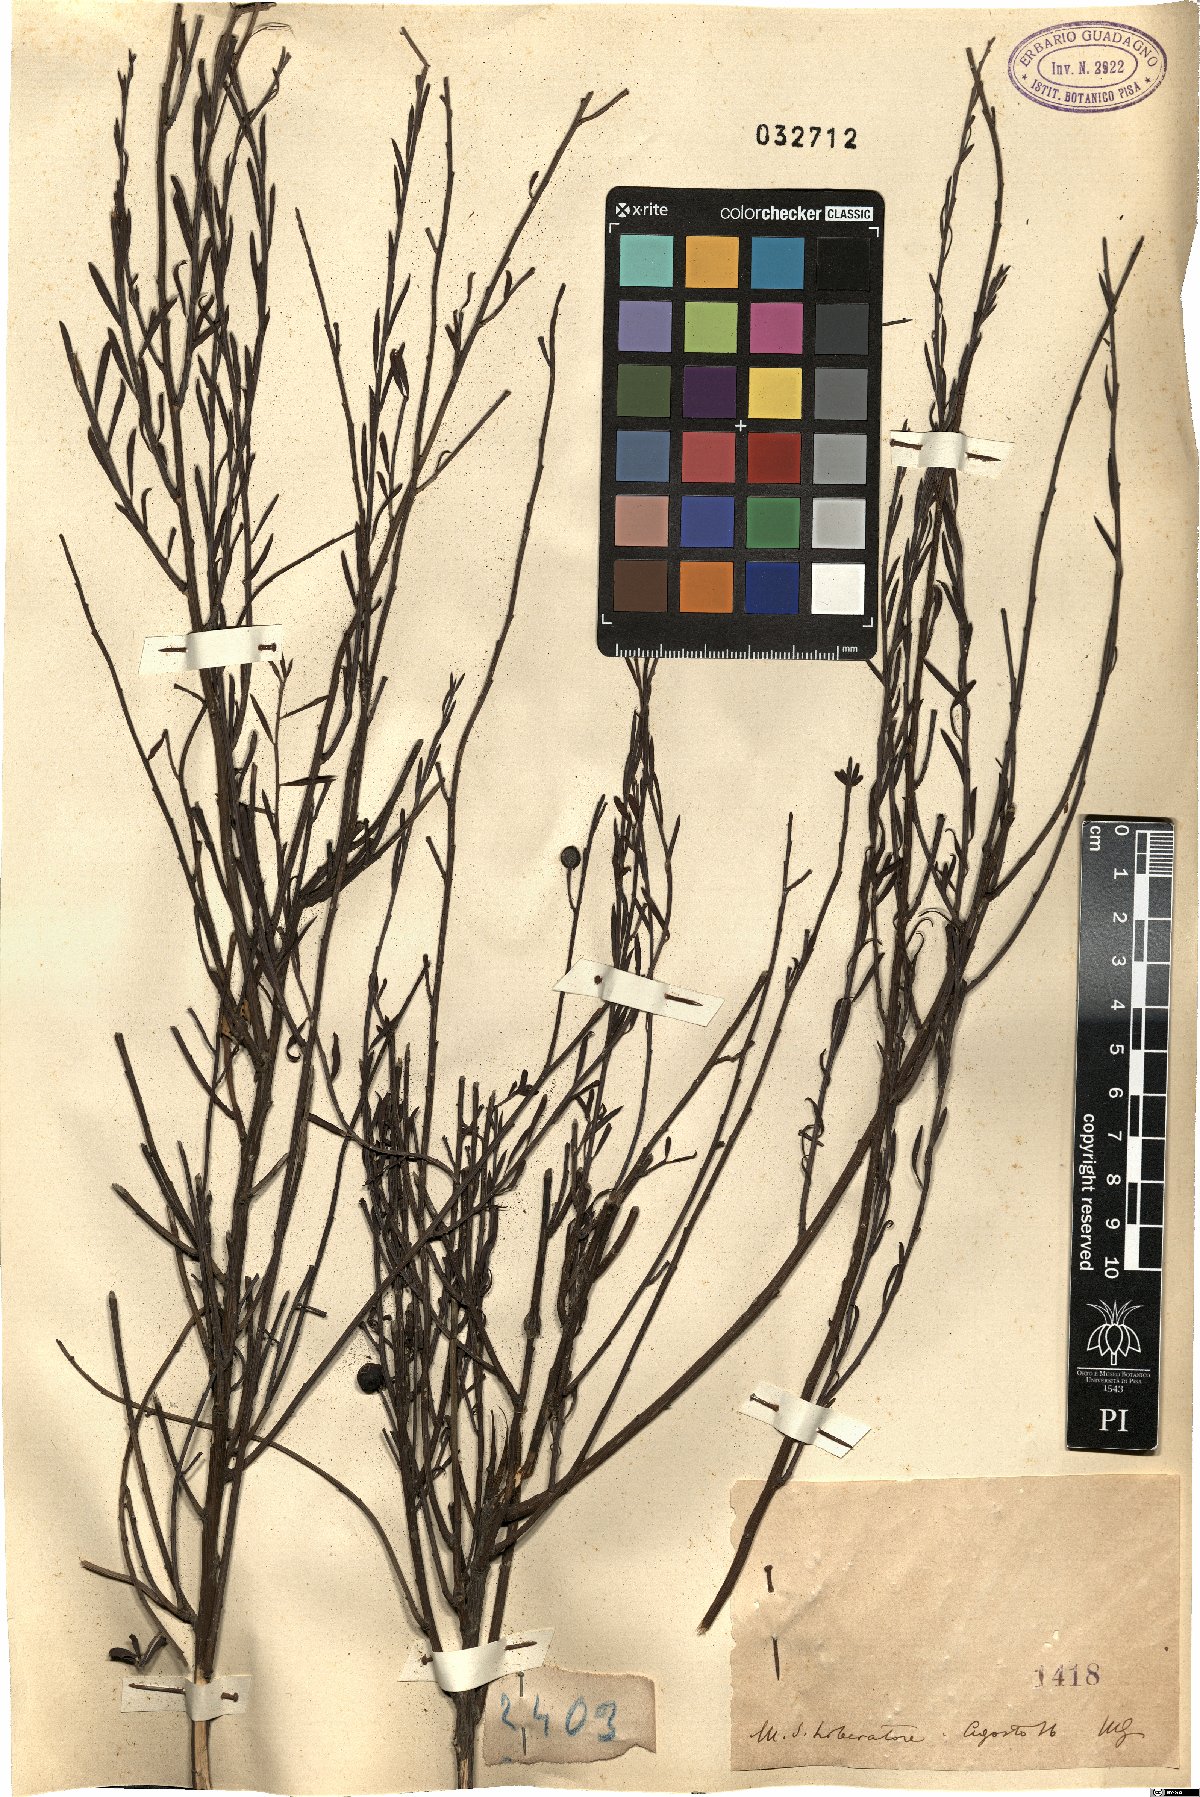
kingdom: Plantae
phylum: Tracheophyta
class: Magnoliopsida
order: Santalales
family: Santalaceae
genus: Osyris
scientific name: Osyris
